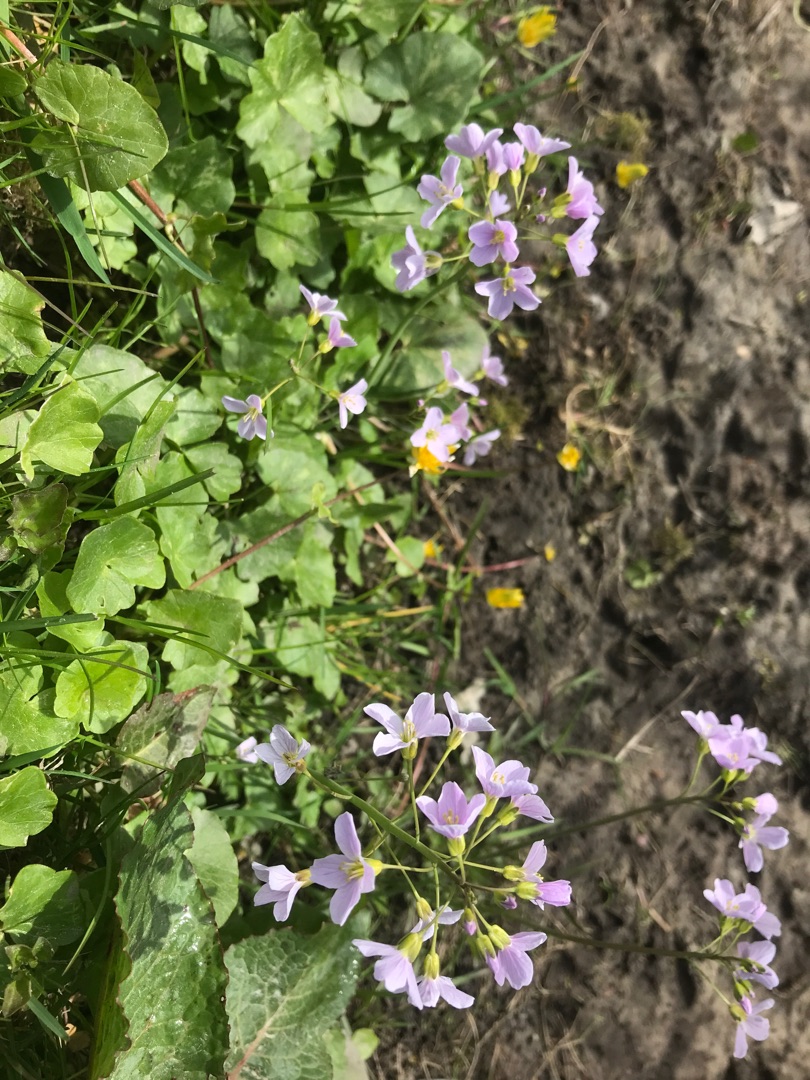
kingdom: Plantae
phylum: Tracheophyta
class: Magnoliopsida
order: Brassicales
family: Brassicaceae
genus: Cardamine
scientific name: Cardamine pratensis
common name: Engkarse
